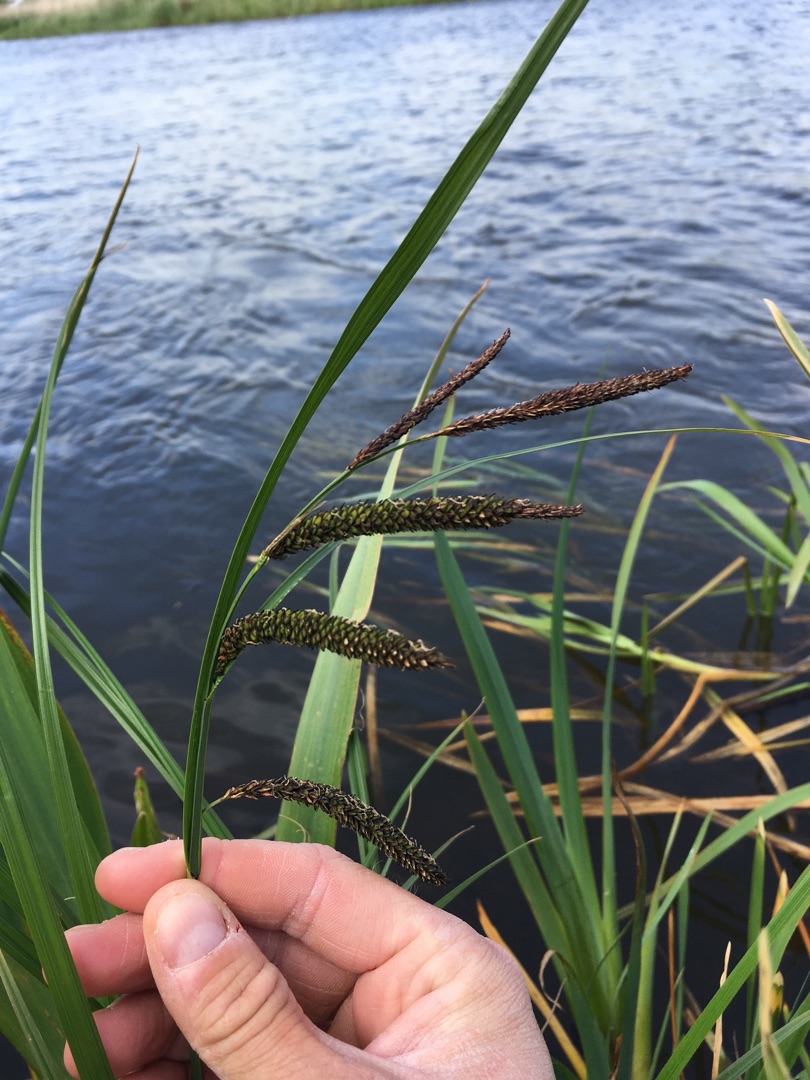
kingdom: Plantae
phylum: Tracheophyta
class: Liliopsida
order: Poales
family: Cyperaceae
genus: Carex
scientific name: Carex acuta
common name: Nikkende star
